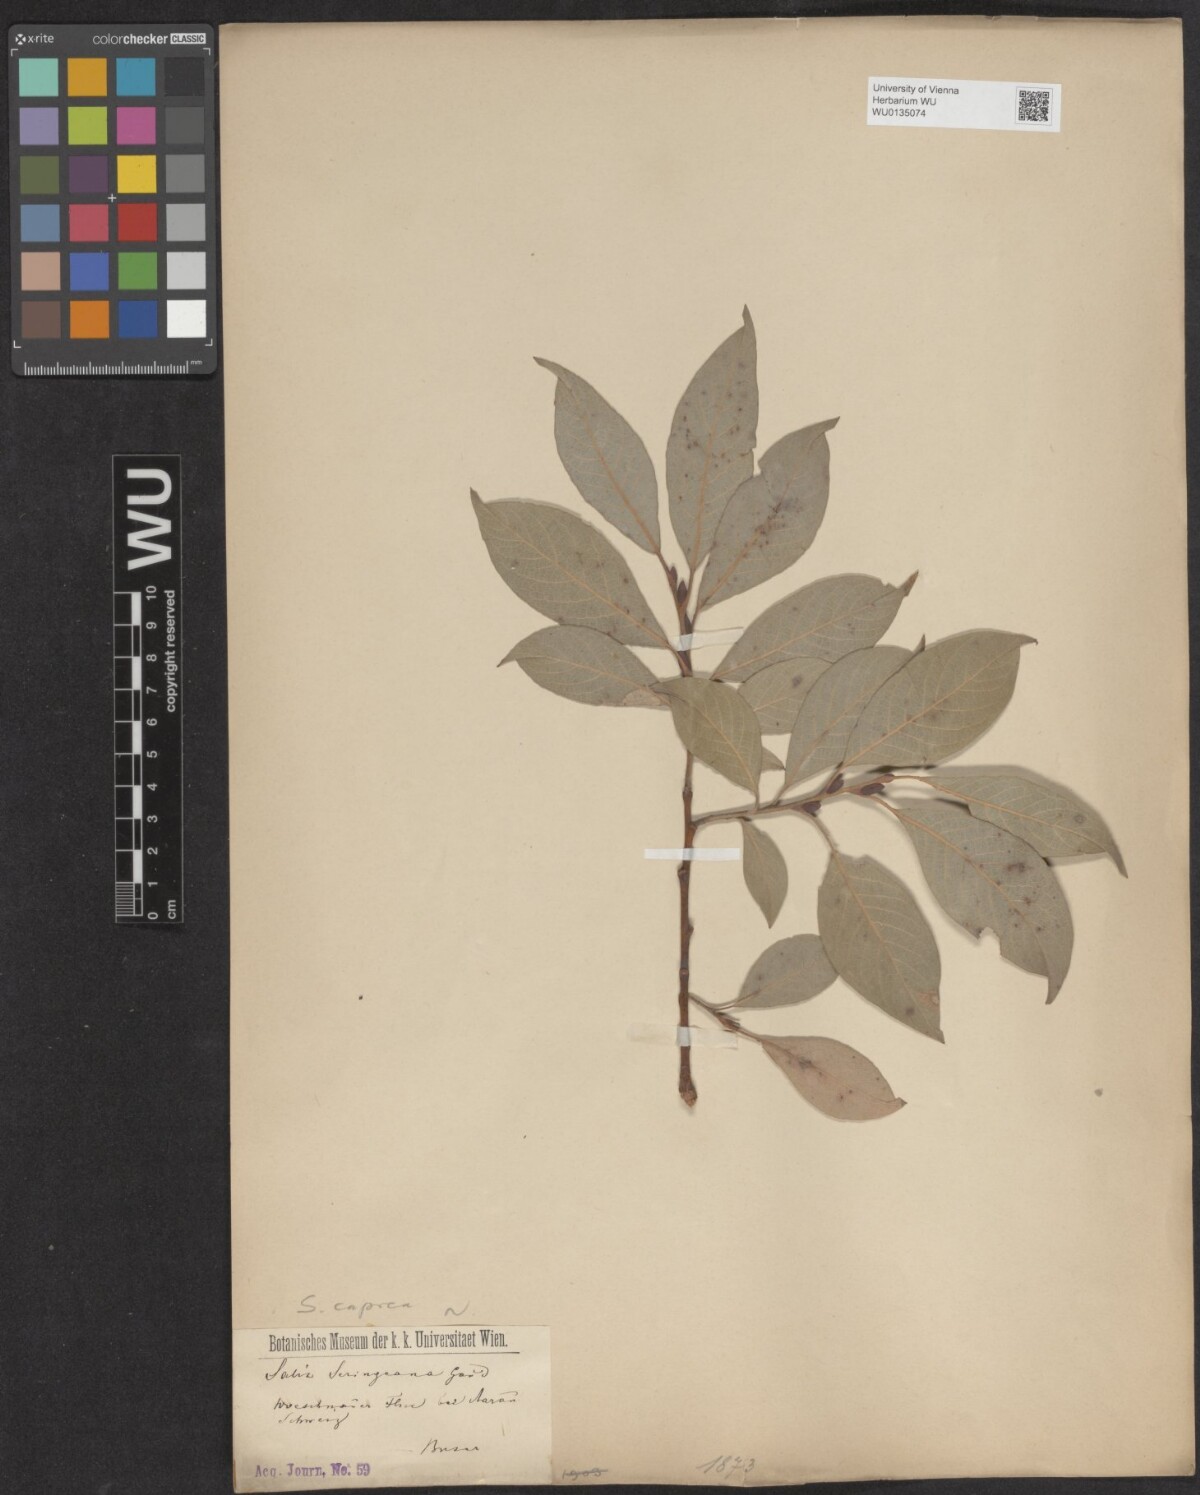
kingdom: Plantae
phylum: Tracheophyta
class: Magnoliopsida
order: Malpighiales
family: Salicaceae
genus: Salix
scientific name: Salix caprea
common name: Goat willow
